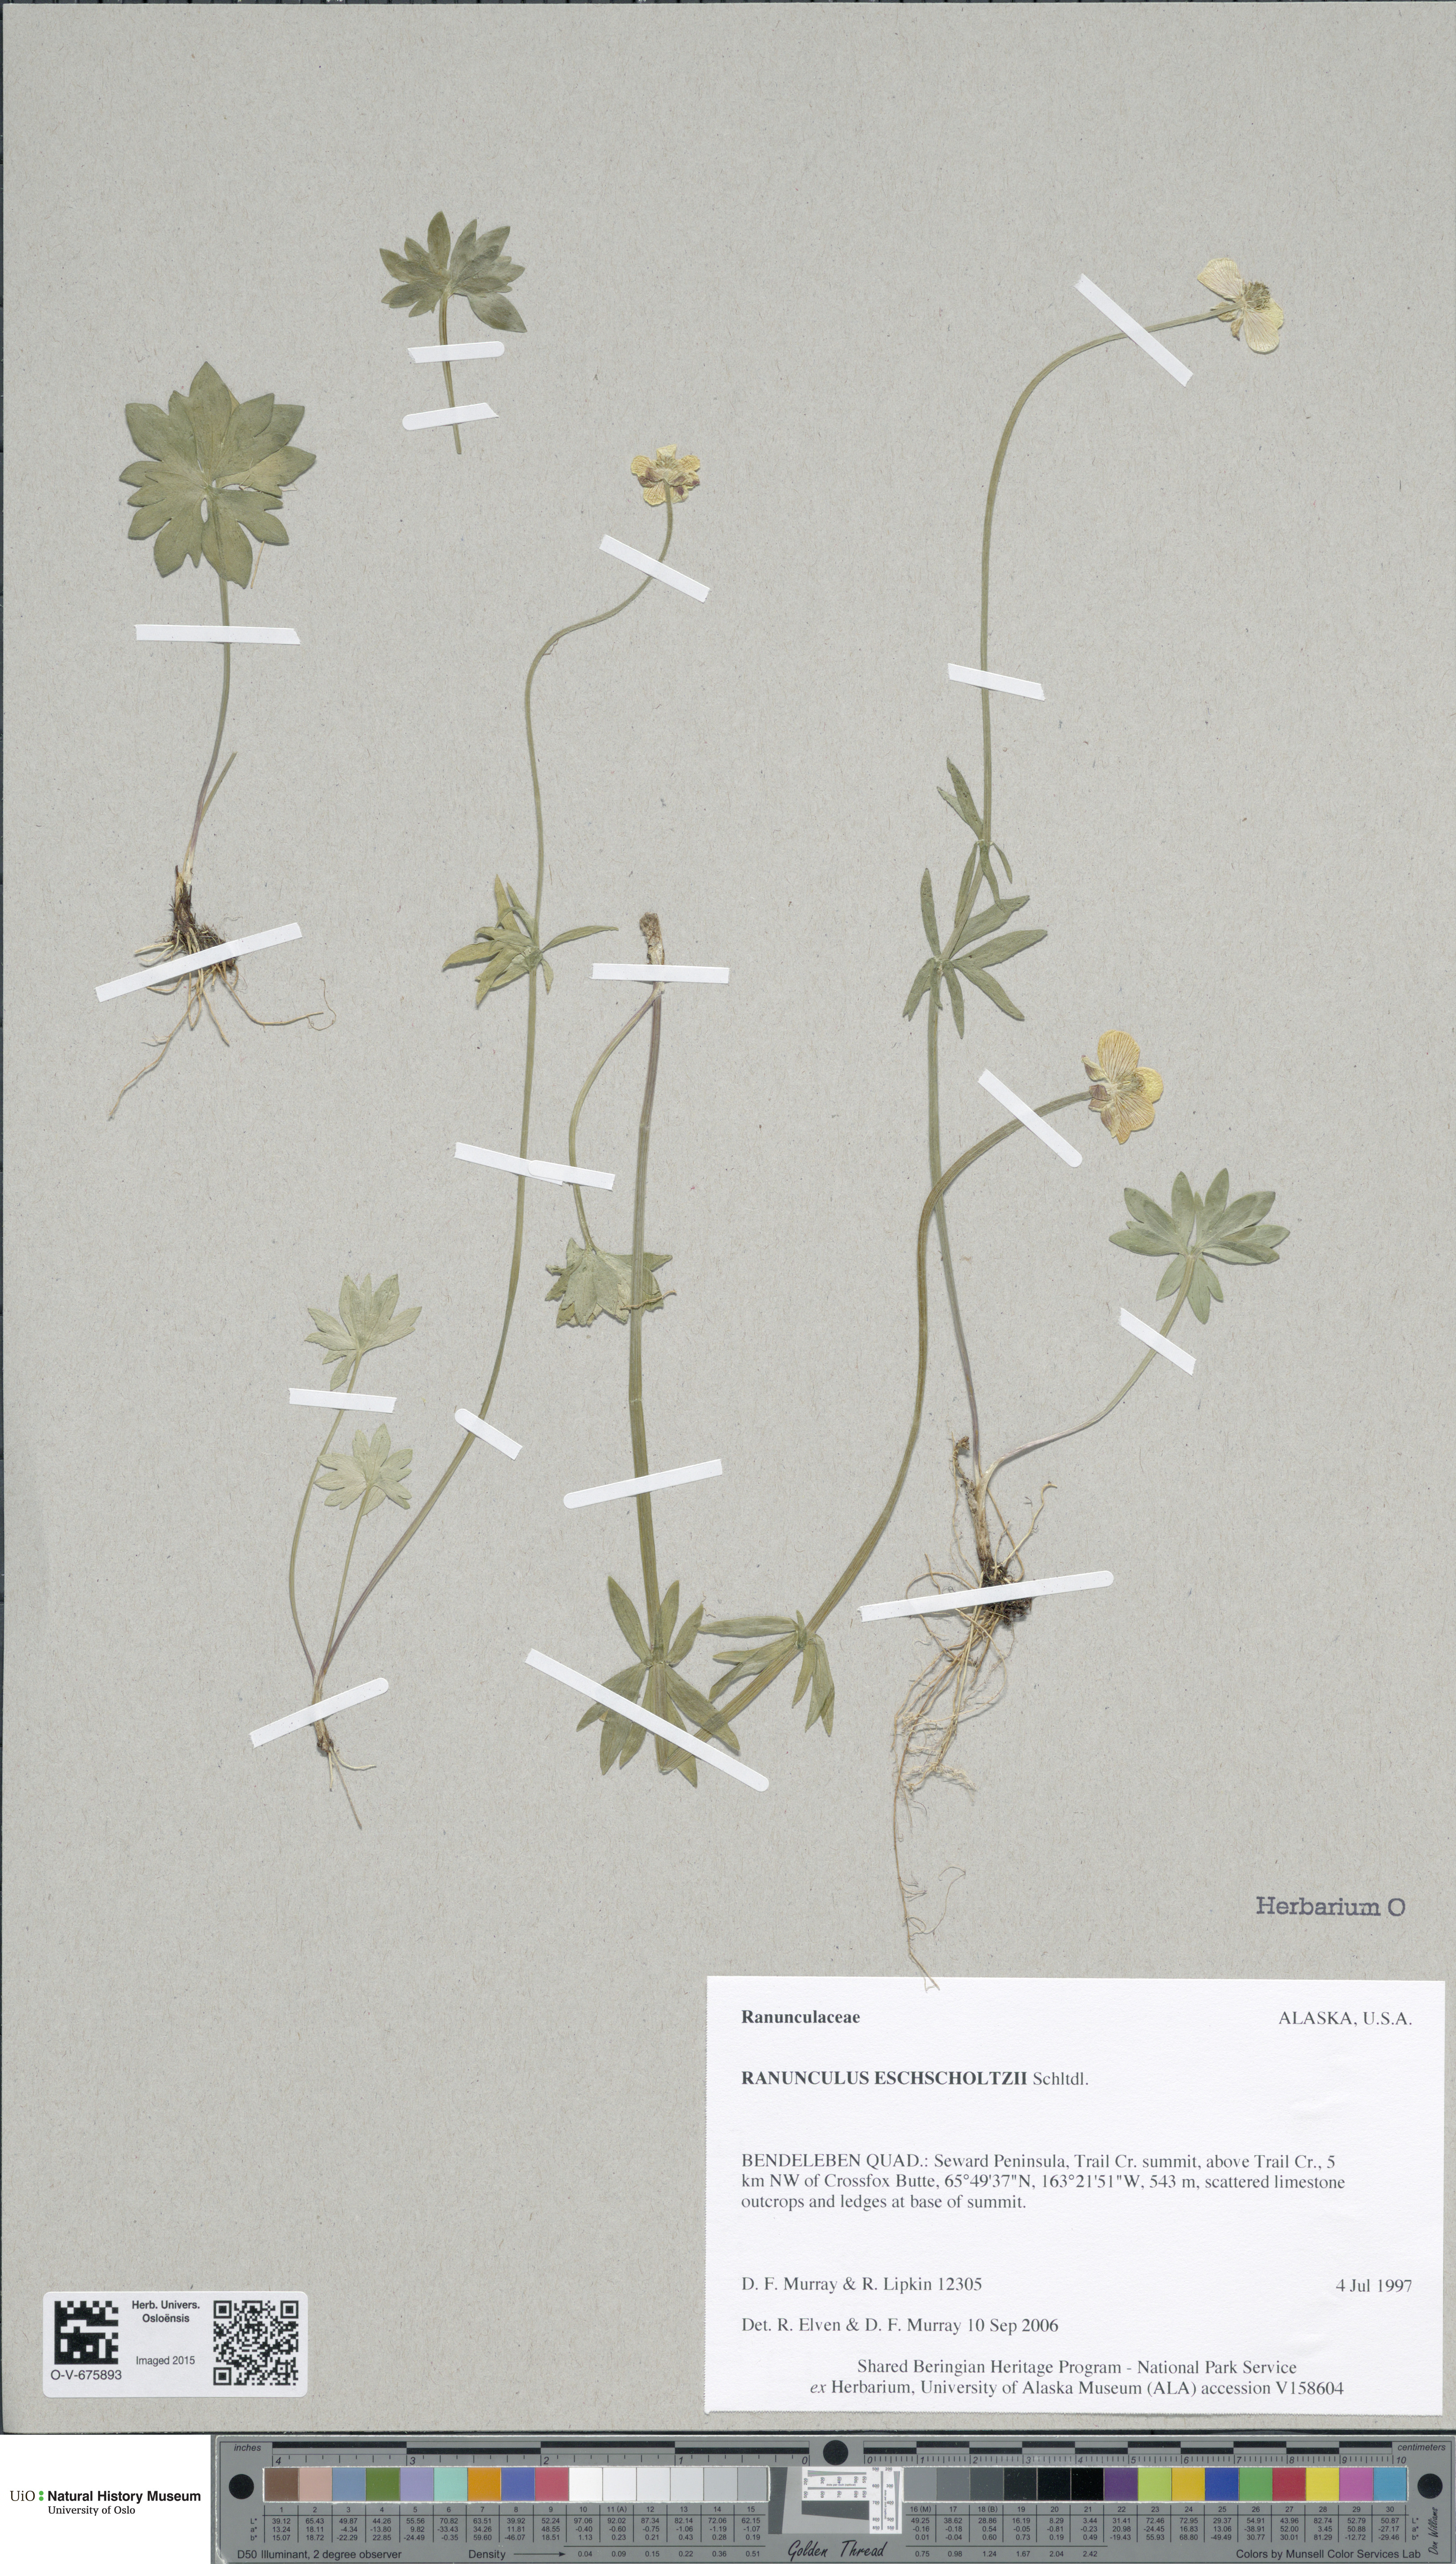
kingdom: Plantae
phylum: Tracheophyta
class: Magnoliopsida
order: Ranunculales
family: Ranunculaceae
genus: Ranunculus
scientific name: Ranunculus eschscholtzii
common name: Eschscholtz's buttercup
